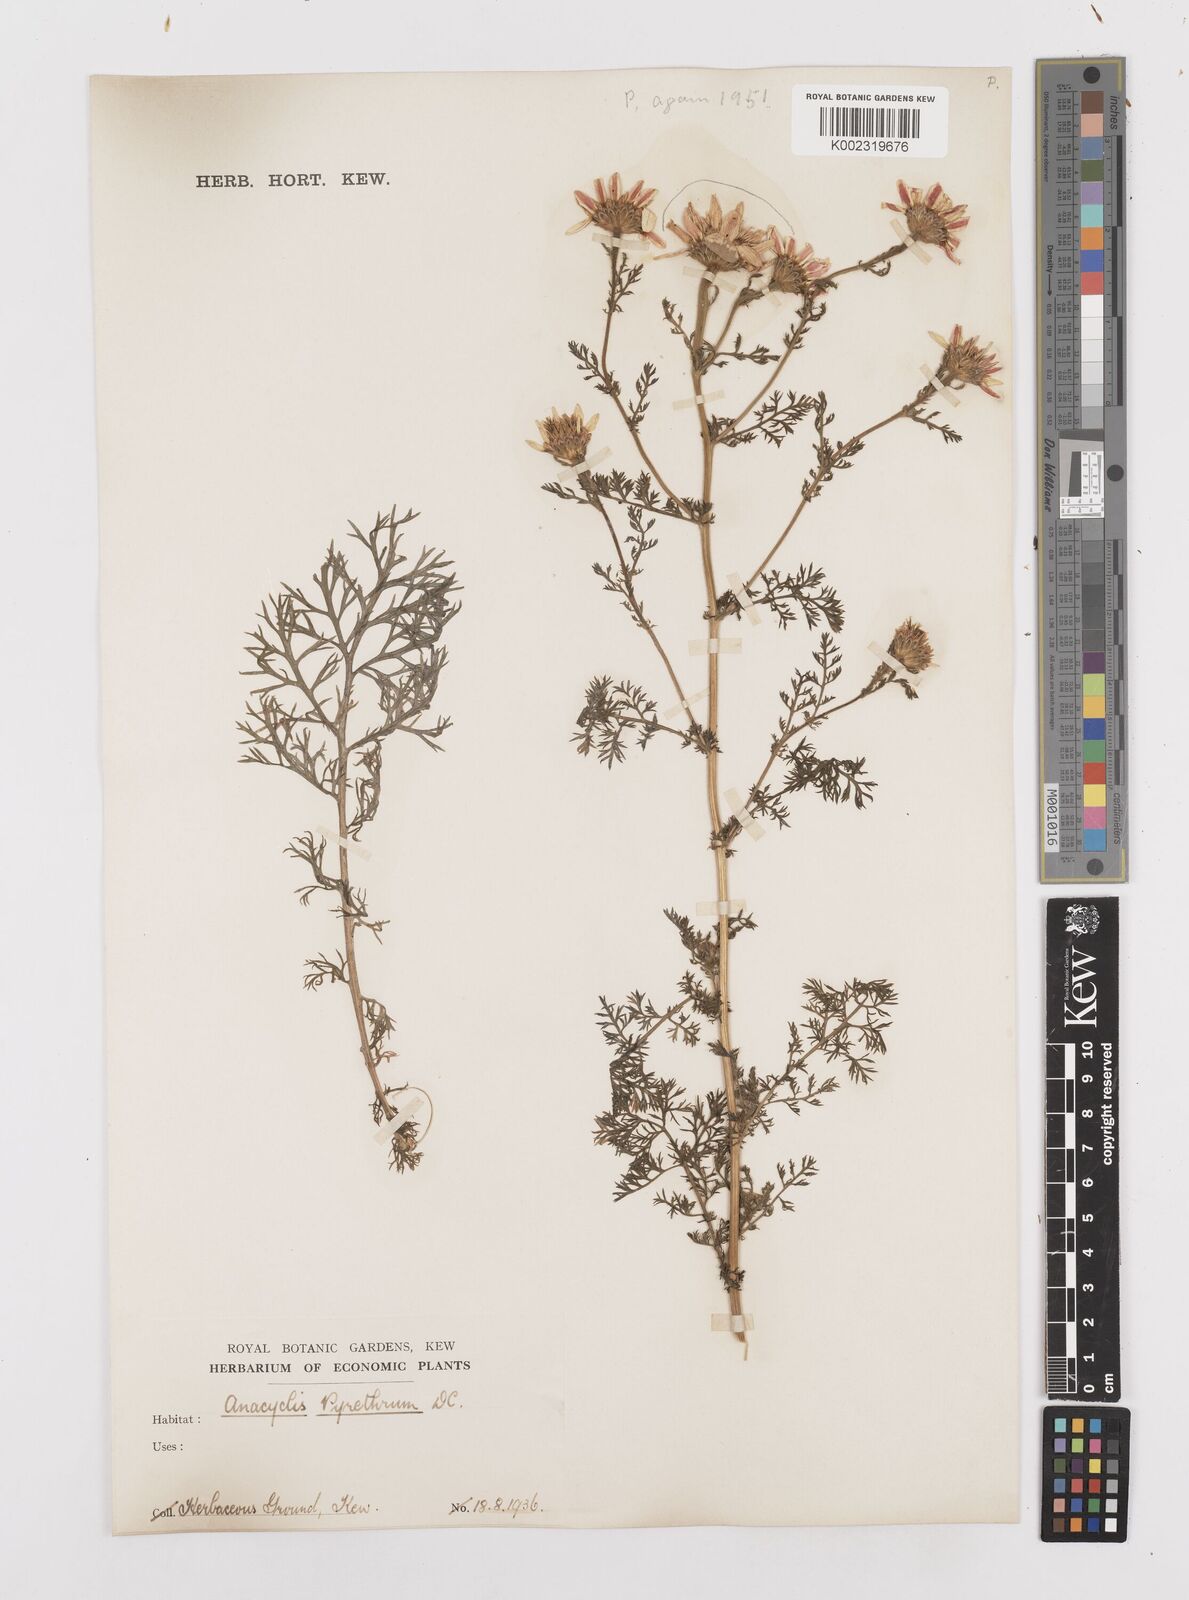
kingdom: Plantae
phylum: Tracheophyta
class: Magnoliopsida
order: Asterales
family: Asteraceae
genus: Anacyclus
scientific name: Anacyclus pyrethrum
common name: Mt. atlas daisy
